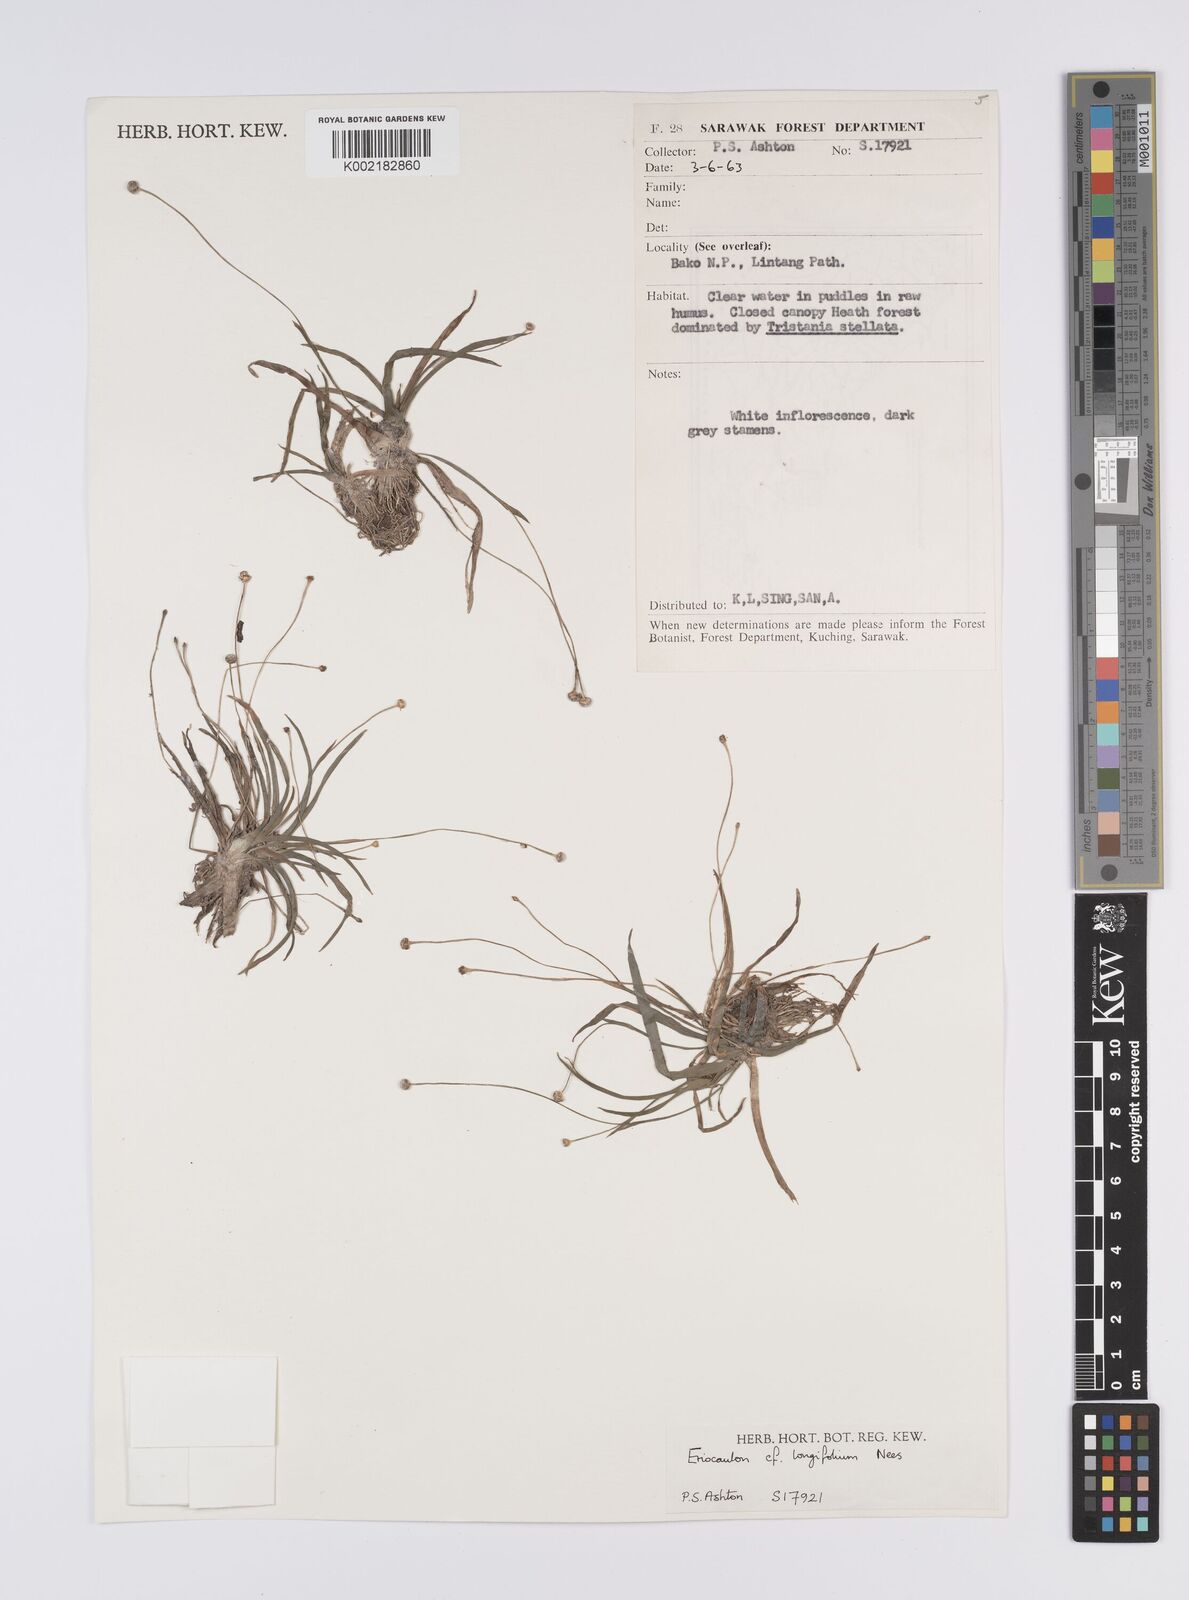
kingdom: Plantae
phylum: Tracheophyta
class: Liliopsida
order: Poales
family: Eriocaulaceae
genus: Eriocaulon
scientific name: Eriocaulon willdenovianum
